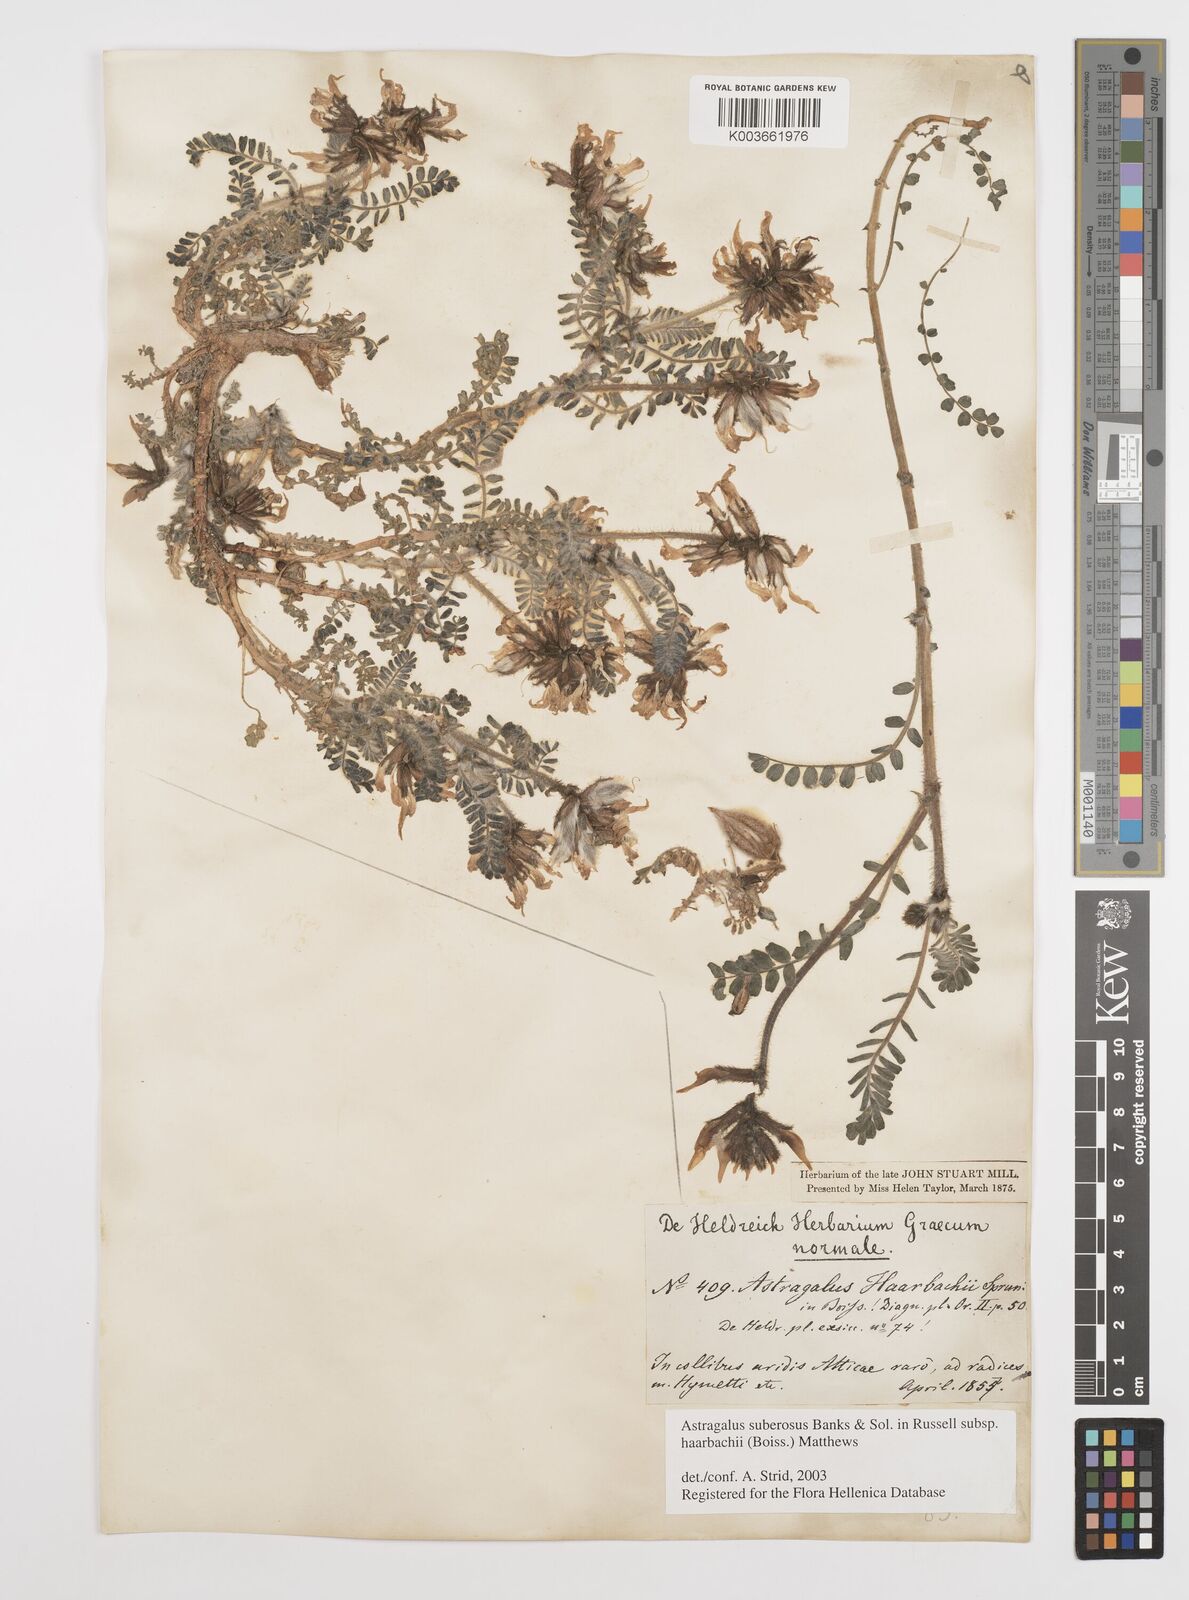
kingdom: Plantae
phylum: Tracheophyta
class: Magnoliopsida
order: Fabales
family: Fabaceae
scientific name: Fabaceae
